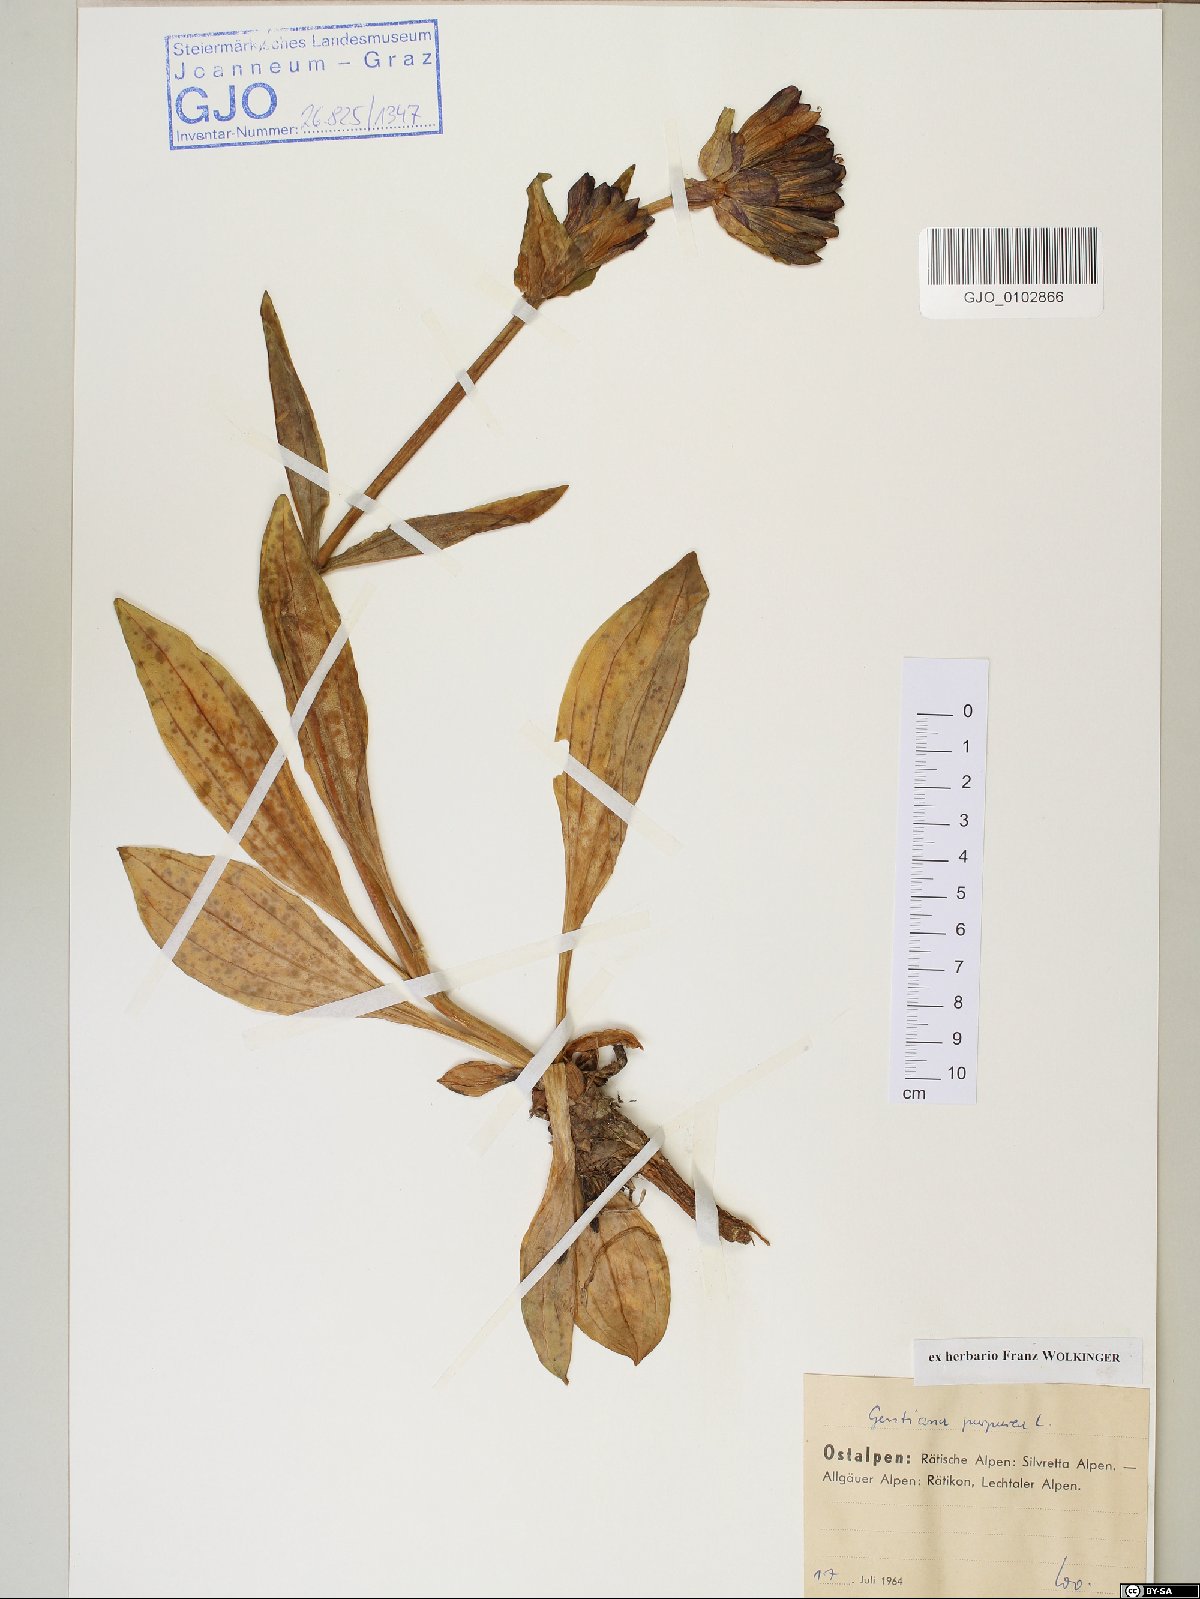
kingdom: Plantae
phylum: Tracheophyta
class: Magnoliopsida
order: Gentianales
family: Gentianaceae
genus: Gentiana
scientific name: Gentiana purpurea
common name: Purple gentian
